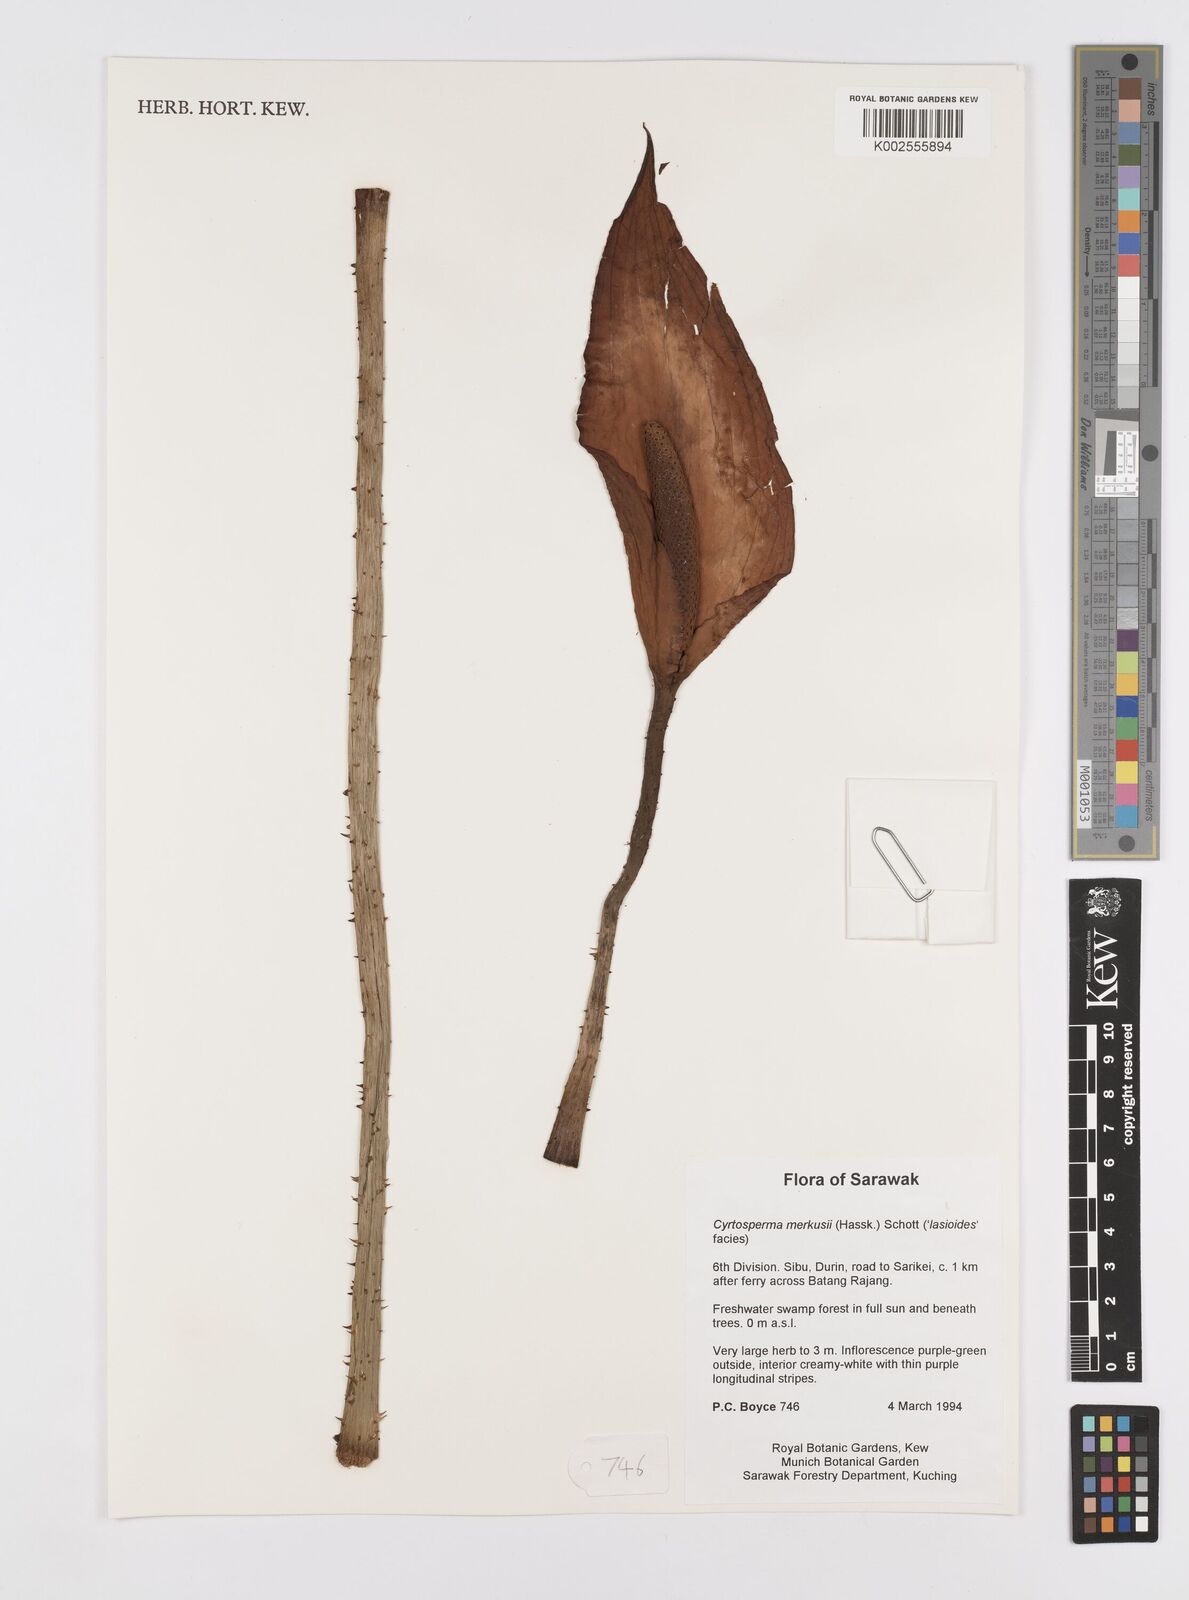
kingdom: Plantae
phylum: Tracheophyta
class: Liliopsida
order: Alismatales
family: Araceae
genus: Cyrtosperma
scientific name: Cyrtosperma merkusii
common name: Giant swamp-taro
